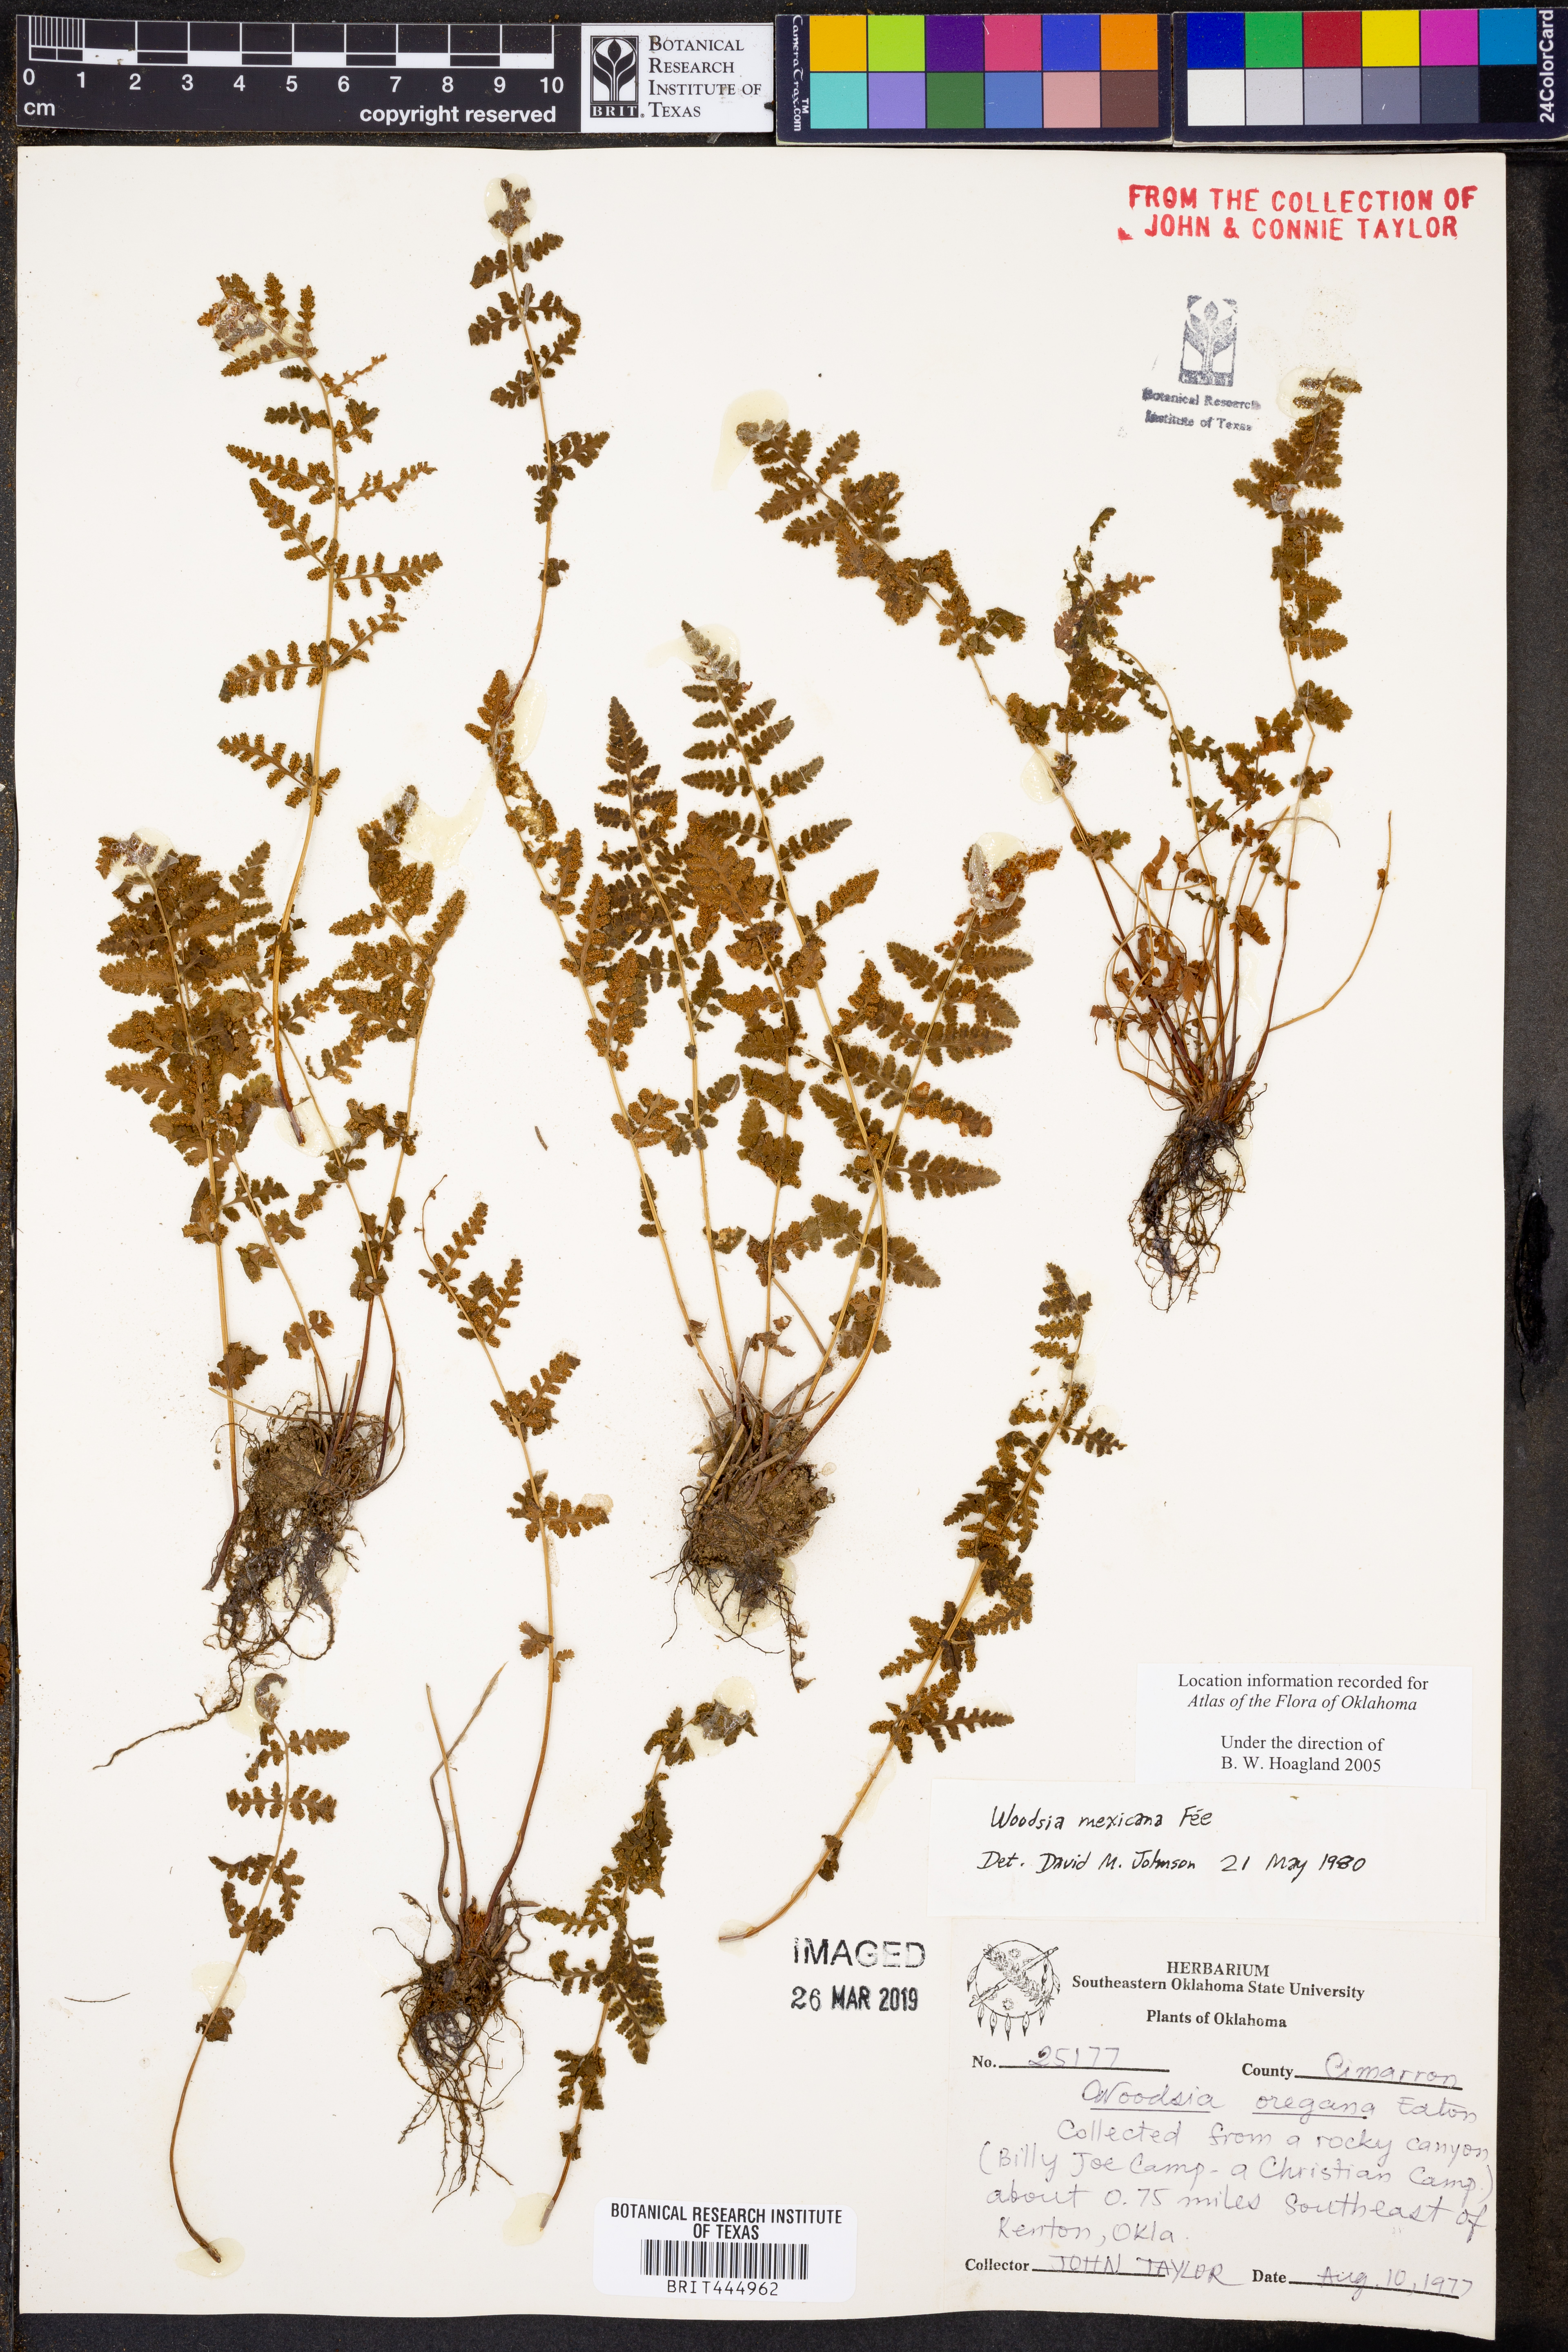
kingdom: Plantae
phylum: Tracheophyta
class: Polypodiopsida
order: Polypodiales
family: Woodsiaceae
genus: Physematium
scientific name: Physematium mexicanum
